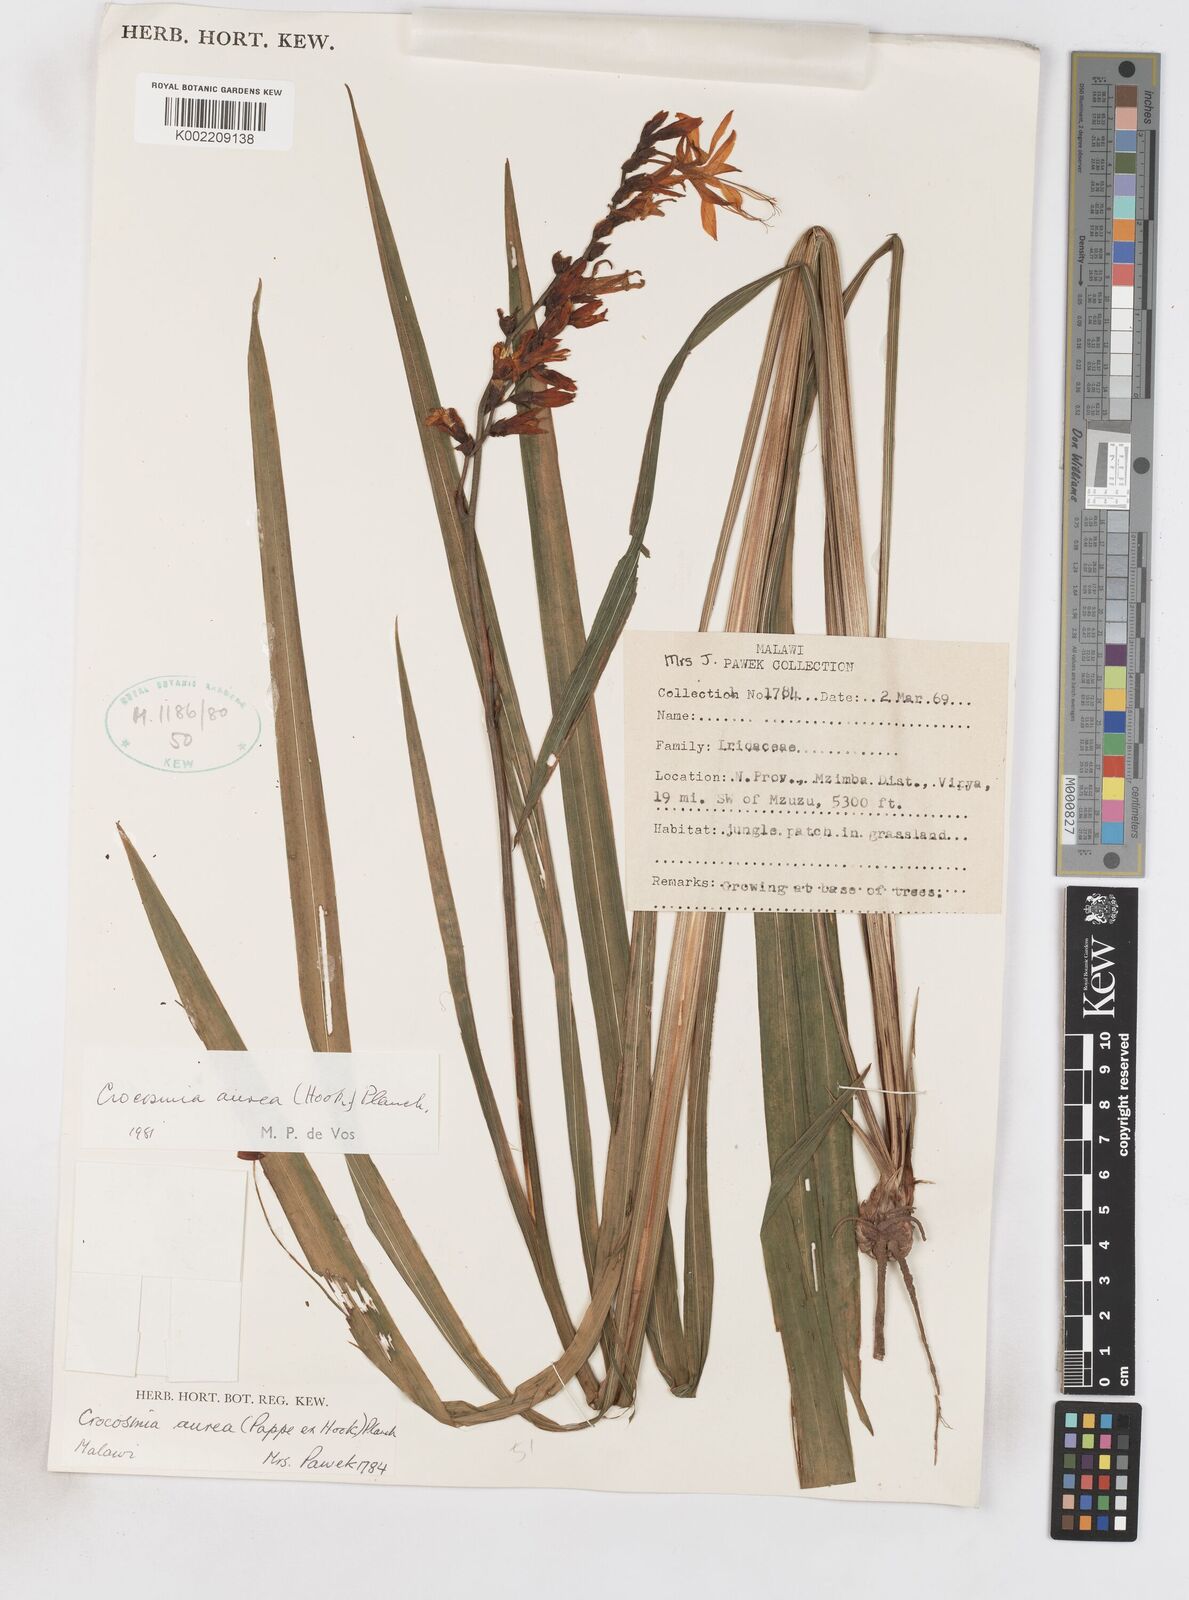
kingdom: Plantae
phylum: Tracheophyta
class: Liliopsida
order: Asparagales
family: Iridaceae
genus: Crocosmia
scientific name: Crocosmia aurea
